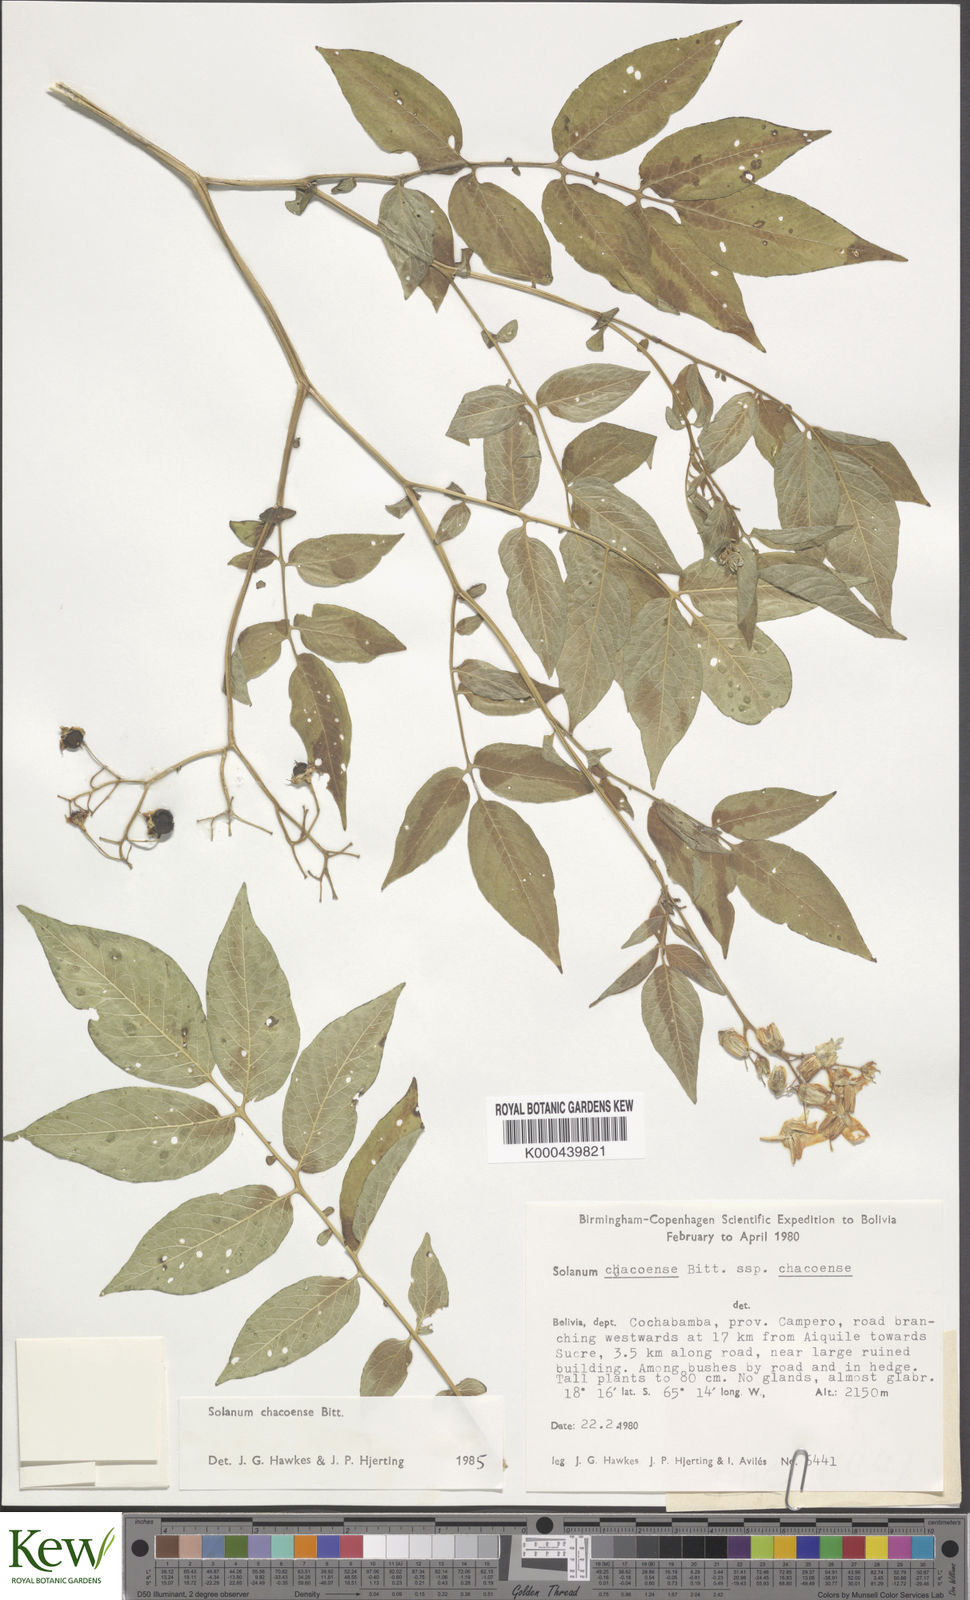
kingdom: Plantae
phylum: Tracheophyta
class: Magnoliopsida
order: Solanales
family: Solanaceae
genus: Solanum
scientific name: Solanum chacoense
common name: Chaco potato
